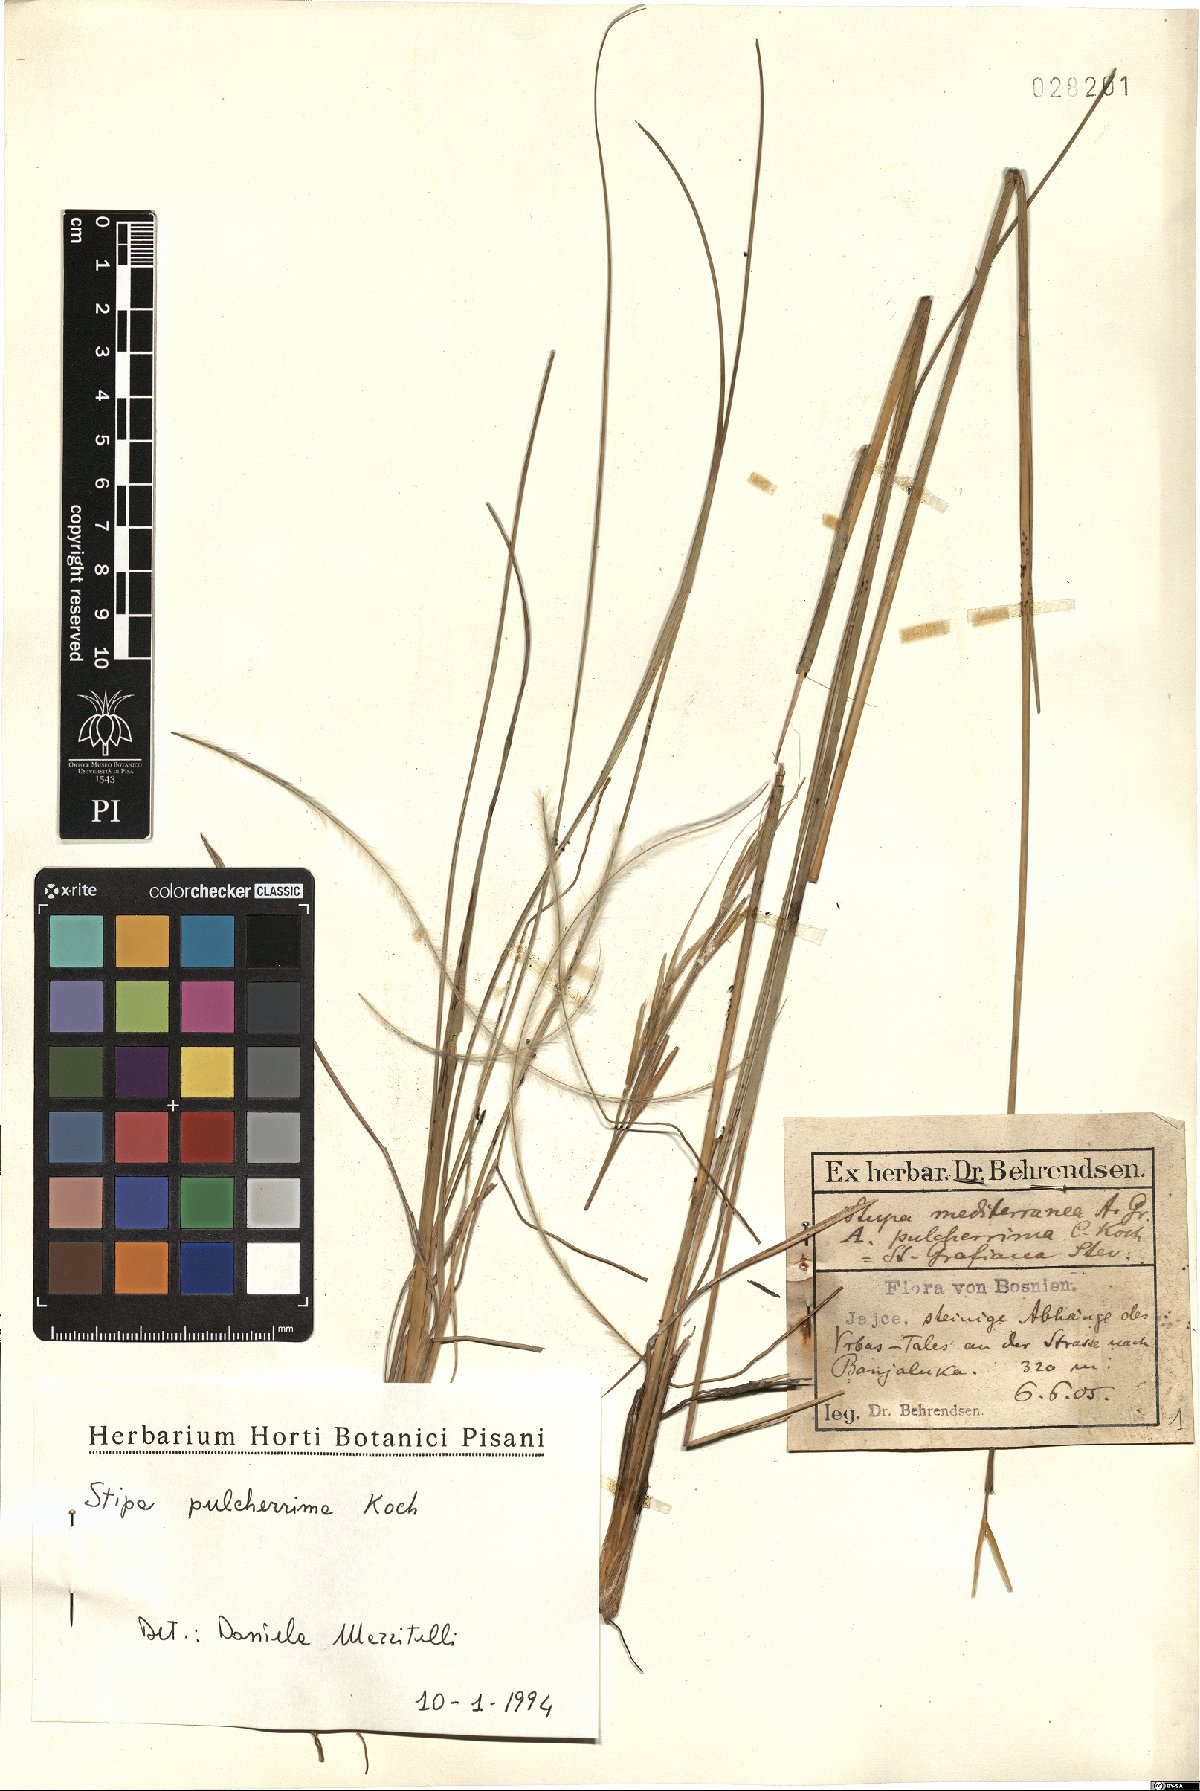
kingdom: Plantae
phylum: Tracheophyta
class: Liliopsida
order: Poales
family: Poaceae
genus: Stipa
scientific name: Stipa pulcherrima
